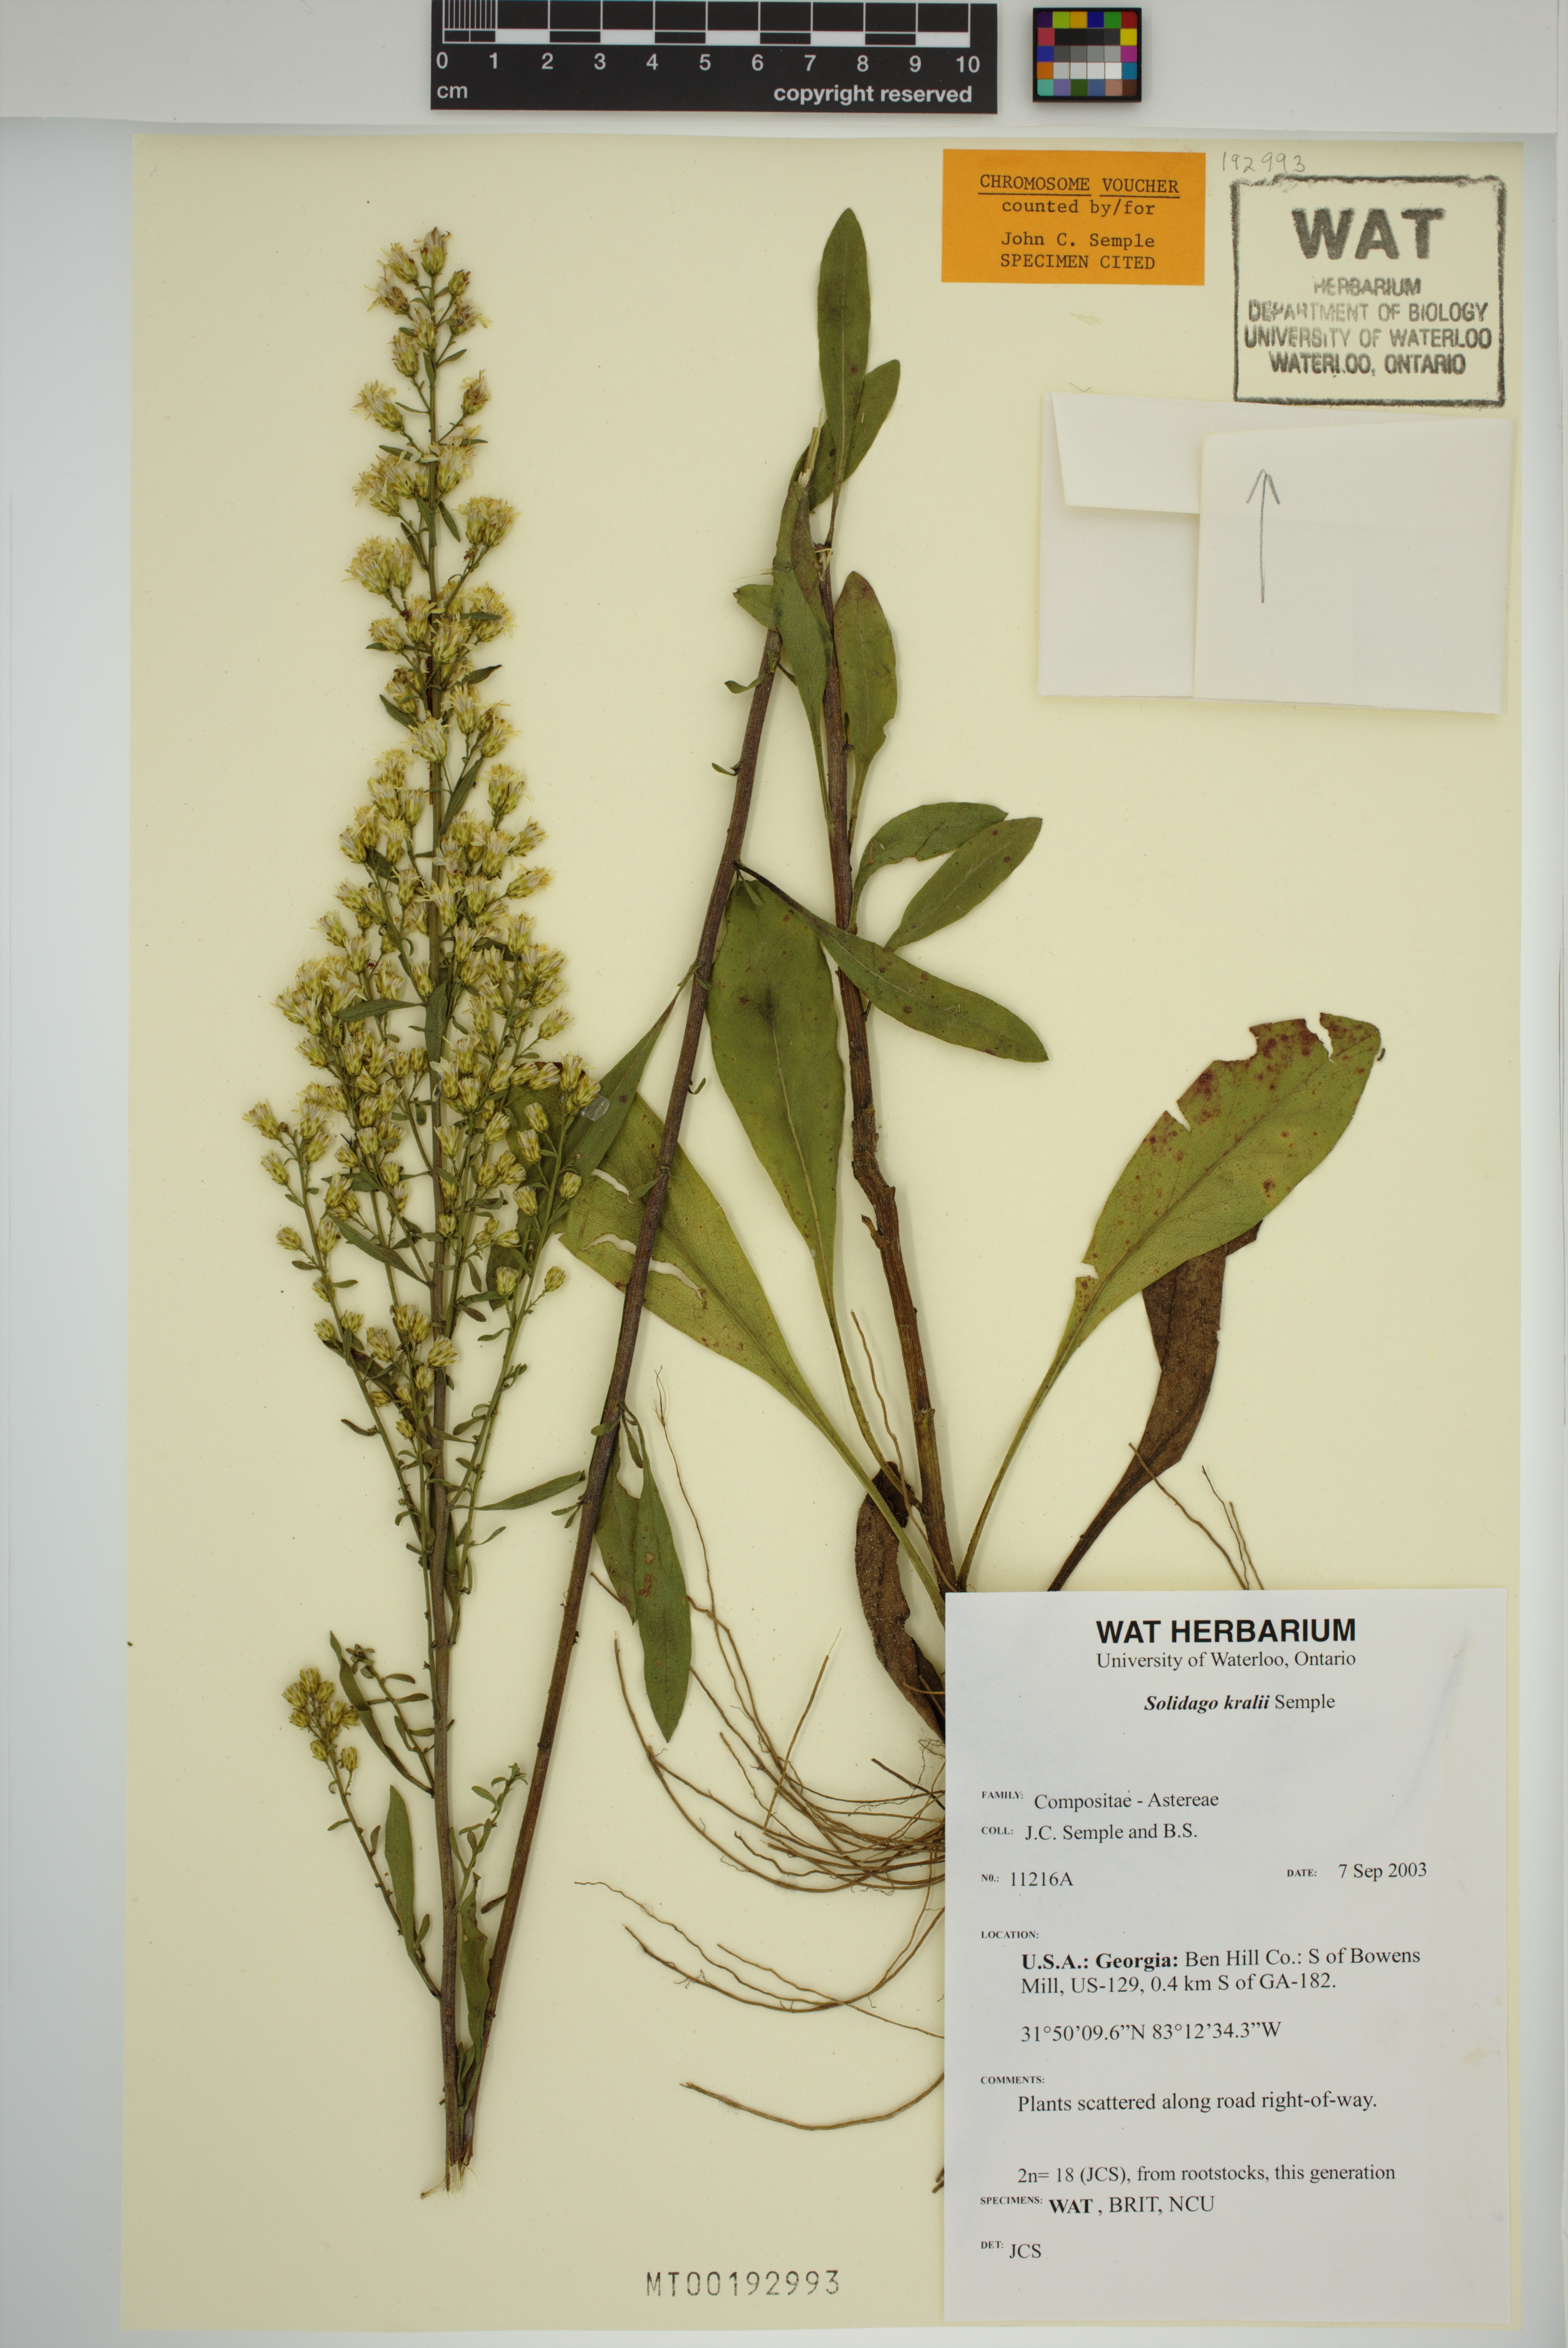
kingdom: Plantae
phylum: Tracheophyta
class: Magnoliopsida
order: Asterales
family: Asteraceae
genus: Solidago
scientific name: Solidago kralii
